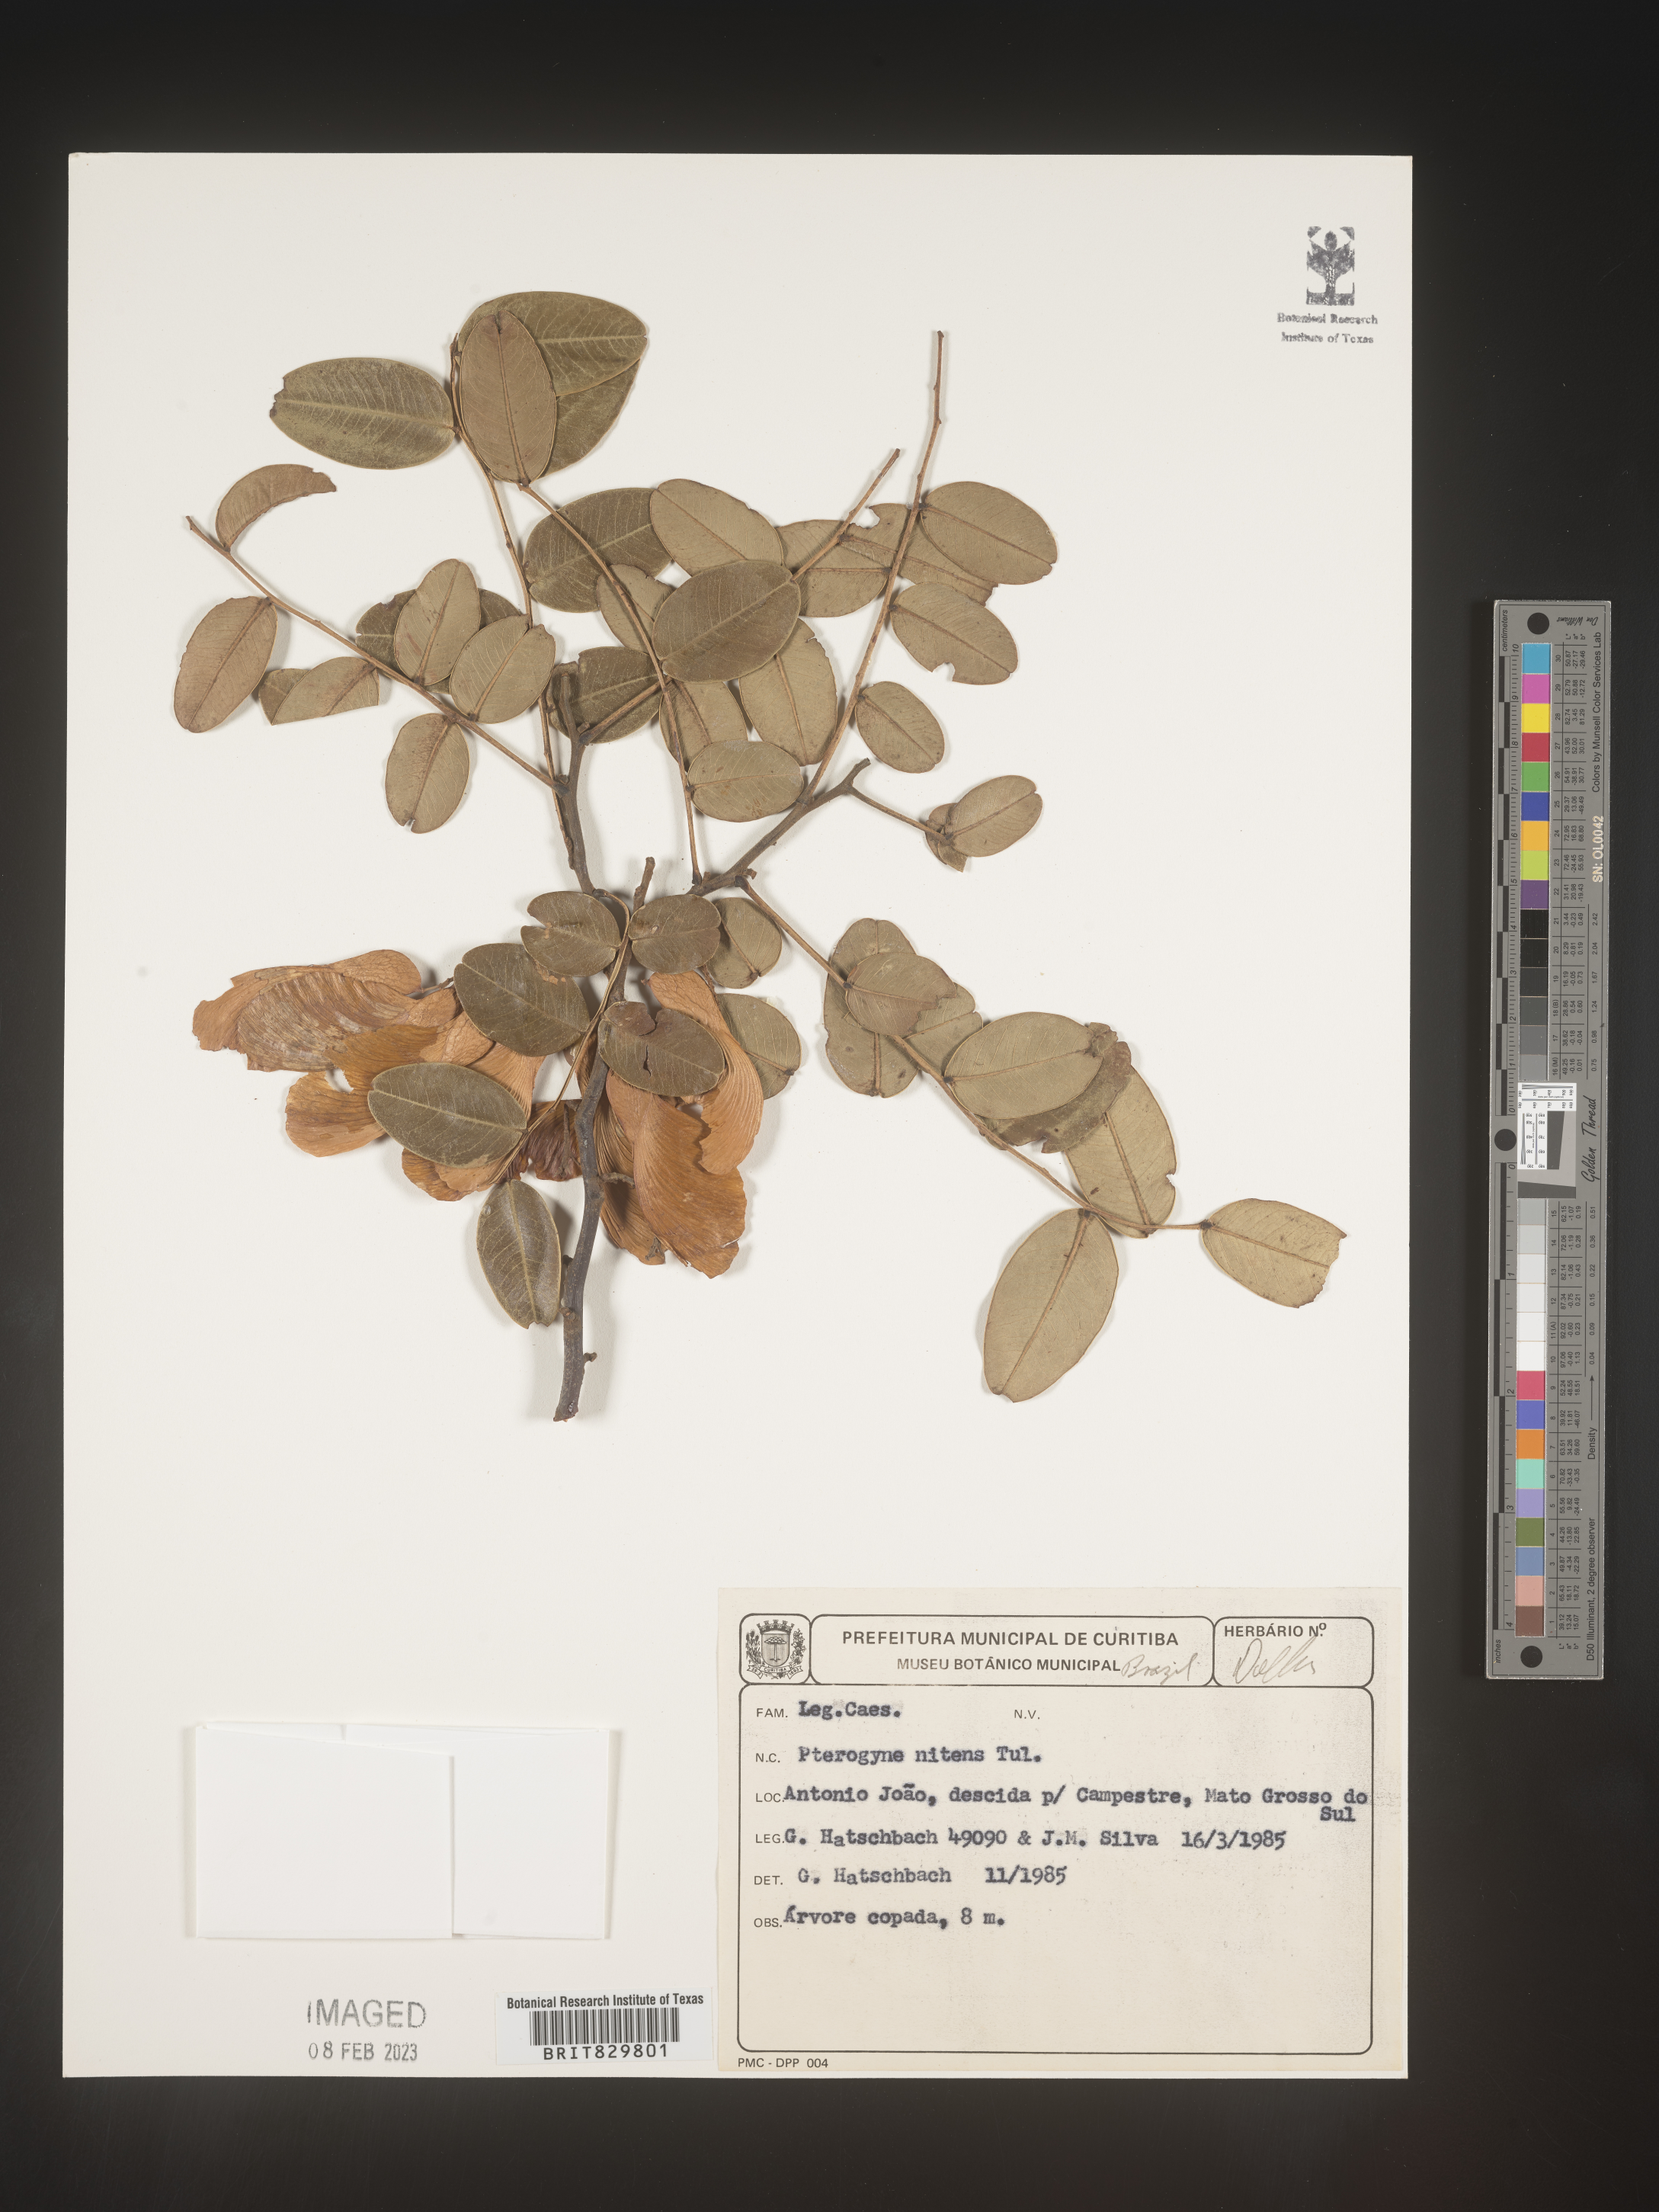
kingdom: Plantae
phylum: Tracheophyta
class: Magnoliopsida
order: Fabales
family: Fabaceae
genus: Pterogyne
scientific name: Pterogyne nitens
